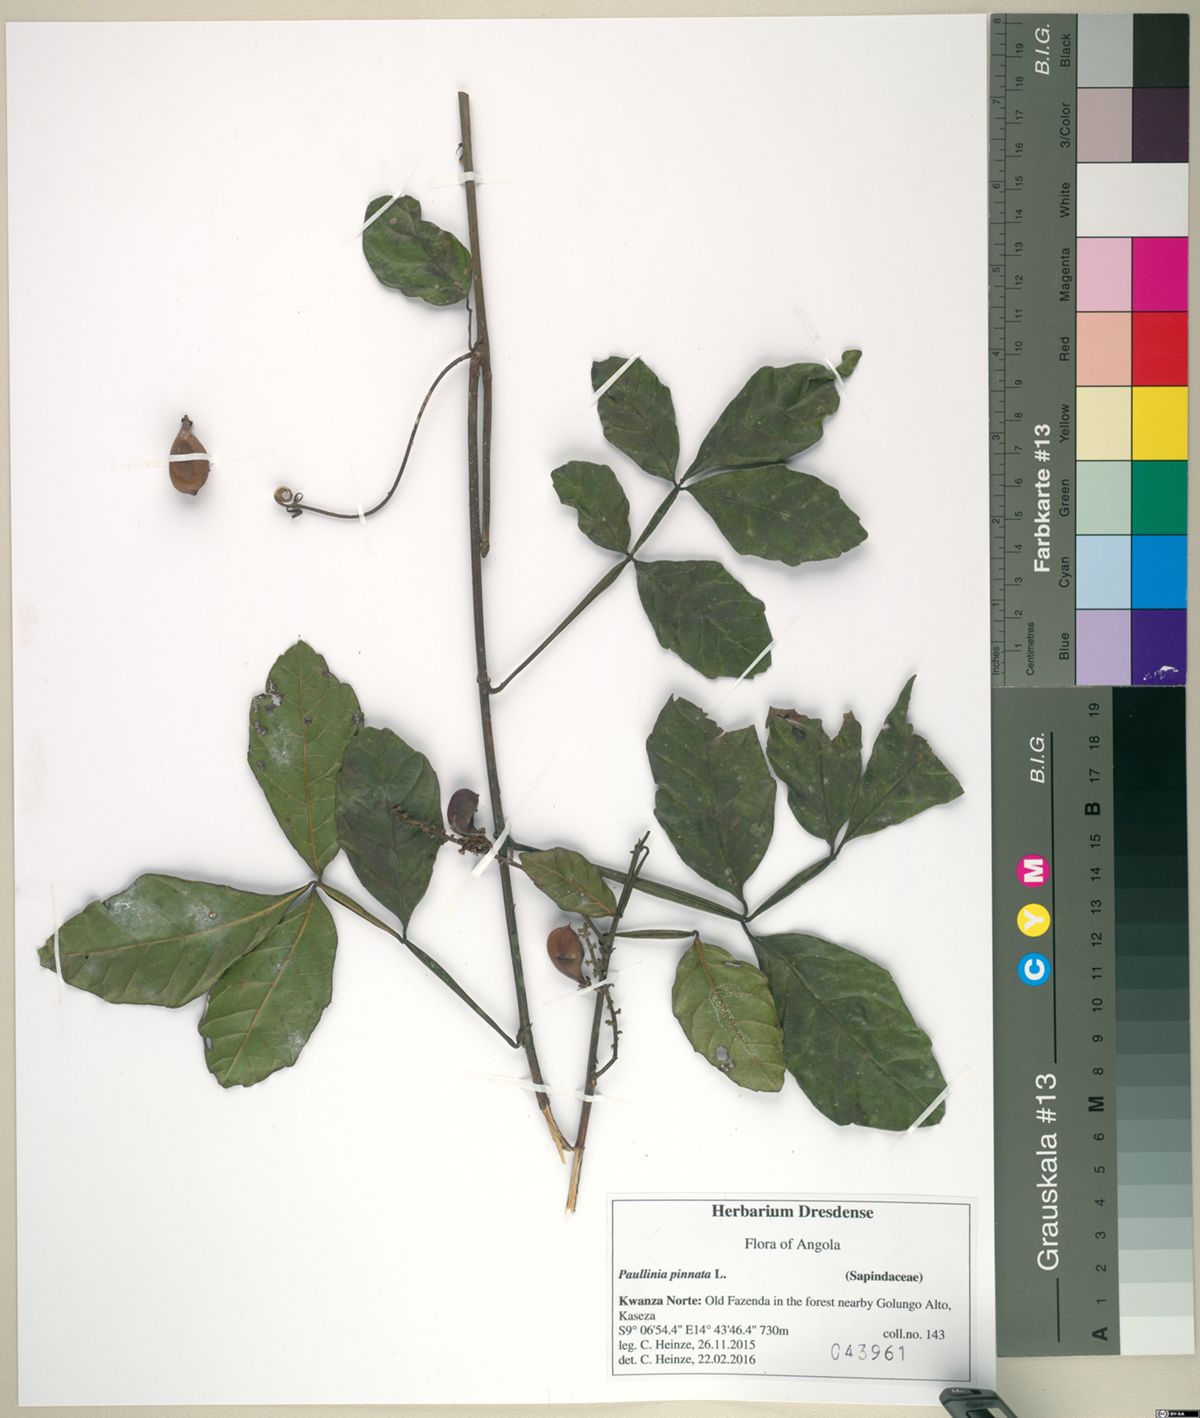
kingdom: Plantae
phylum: Tracheophyta
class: Magnoliopsida
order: Sapindales
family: Sapindaceae
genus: Paullinia
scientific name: Paullinia pinnata
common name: Barbasco
